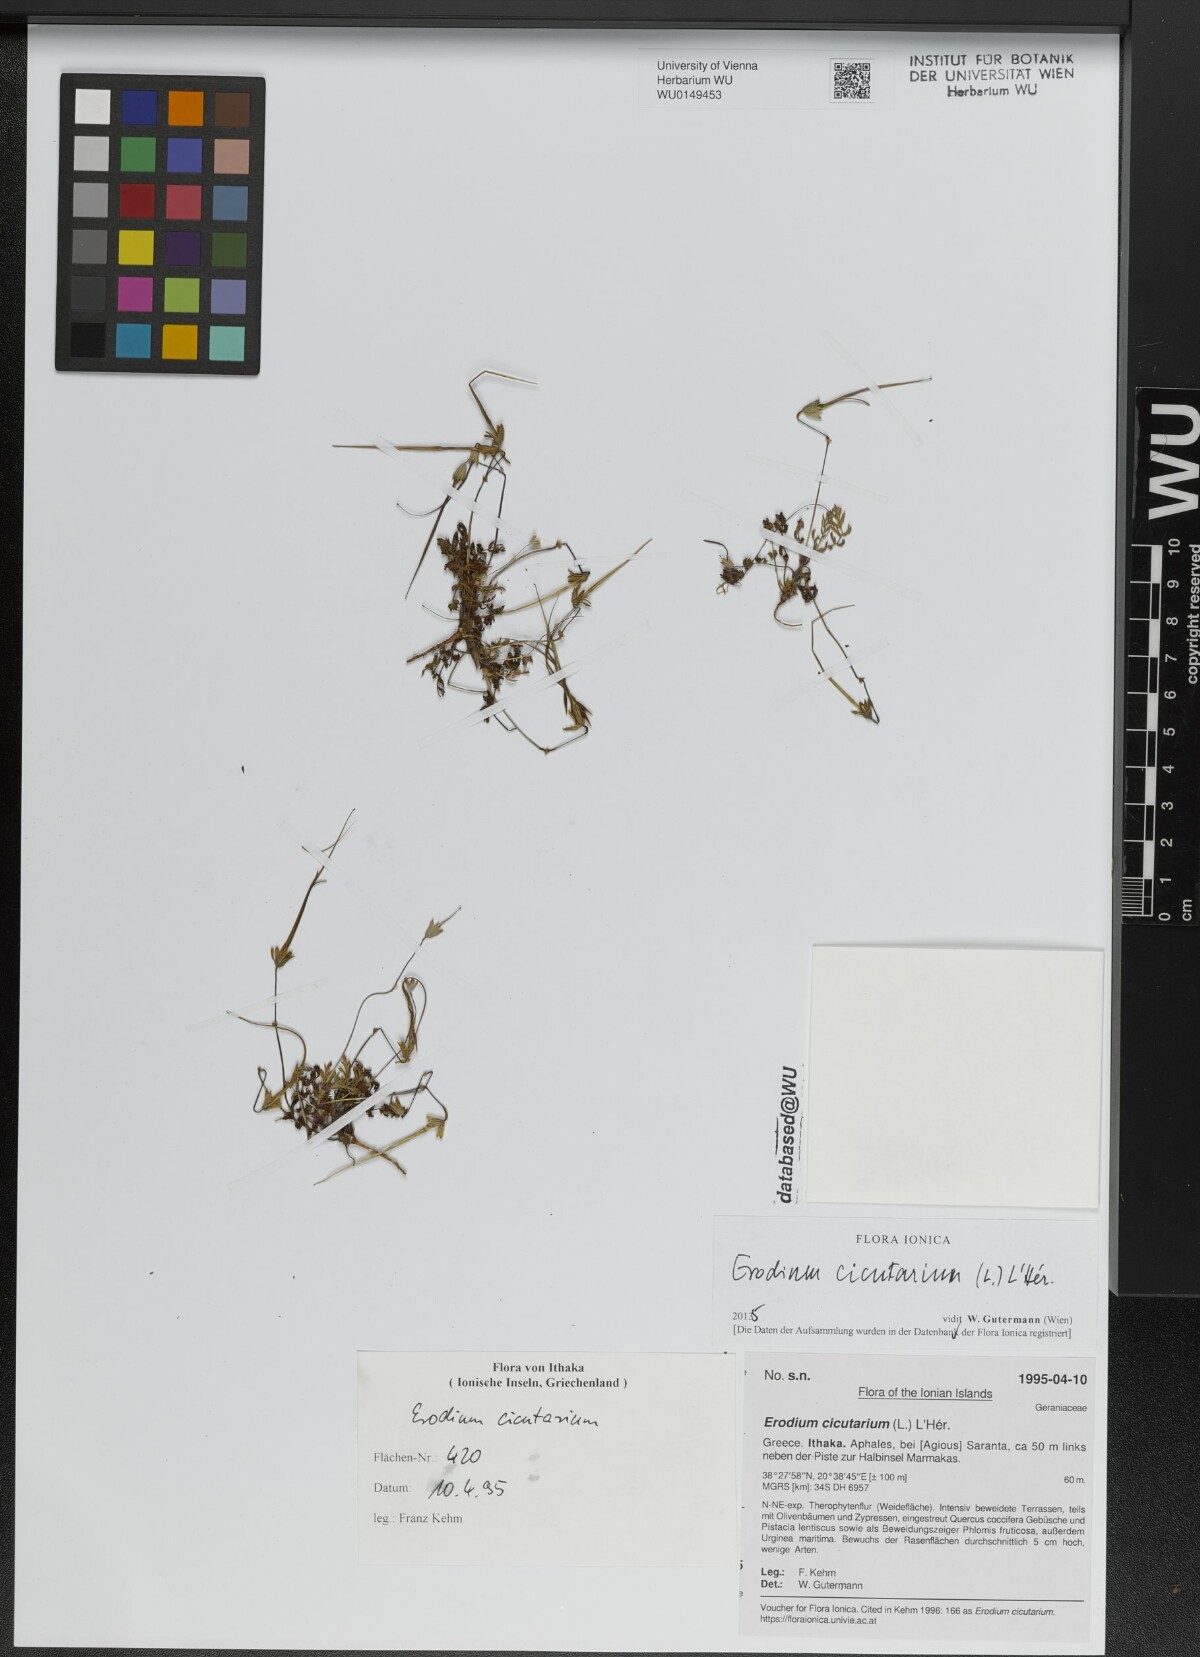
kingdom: Plantae
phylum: Tracheophyta
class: Magnoliopsida
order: Geraniales
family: Geraniaceae
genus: Erodium
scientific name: Erodium cicutarium
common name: Common stork's-bill
